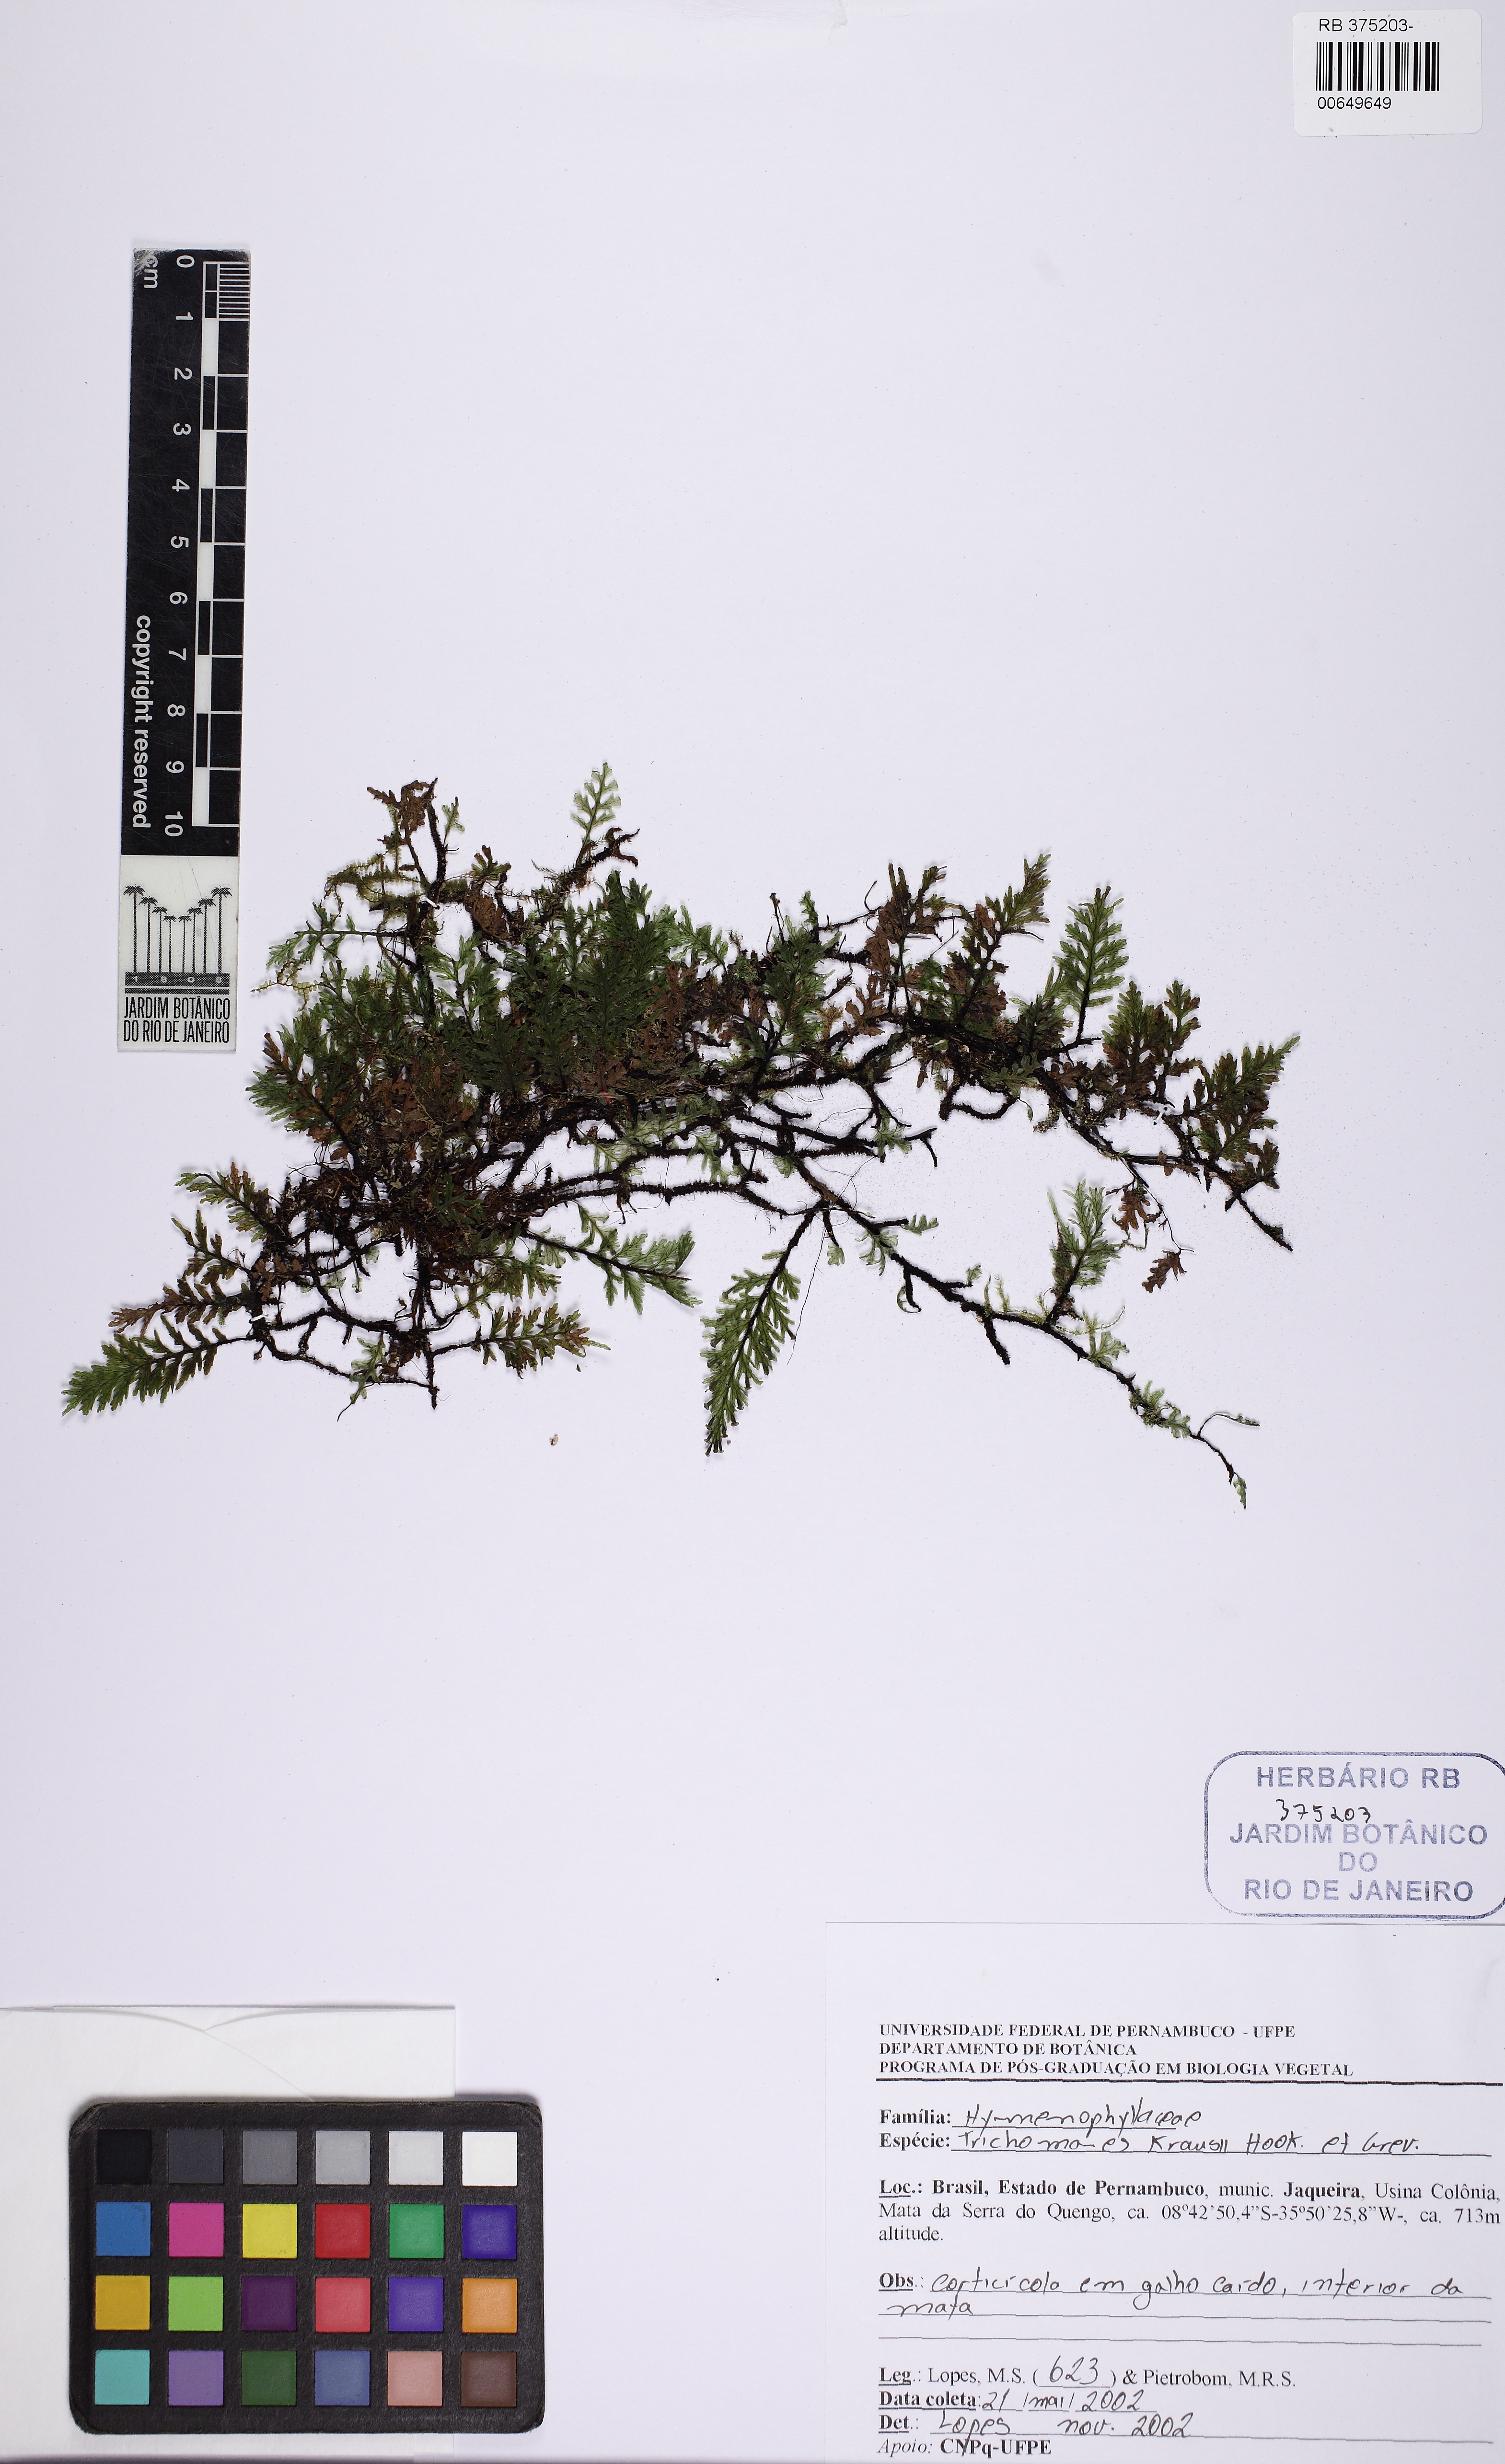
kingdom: Plantae
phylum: Tracheophyta
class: Polypodiopsida
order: Hymenophyllales
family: Hymenophyllaceae
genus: Didymoglossum
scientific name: Didymoglossum kraussii
